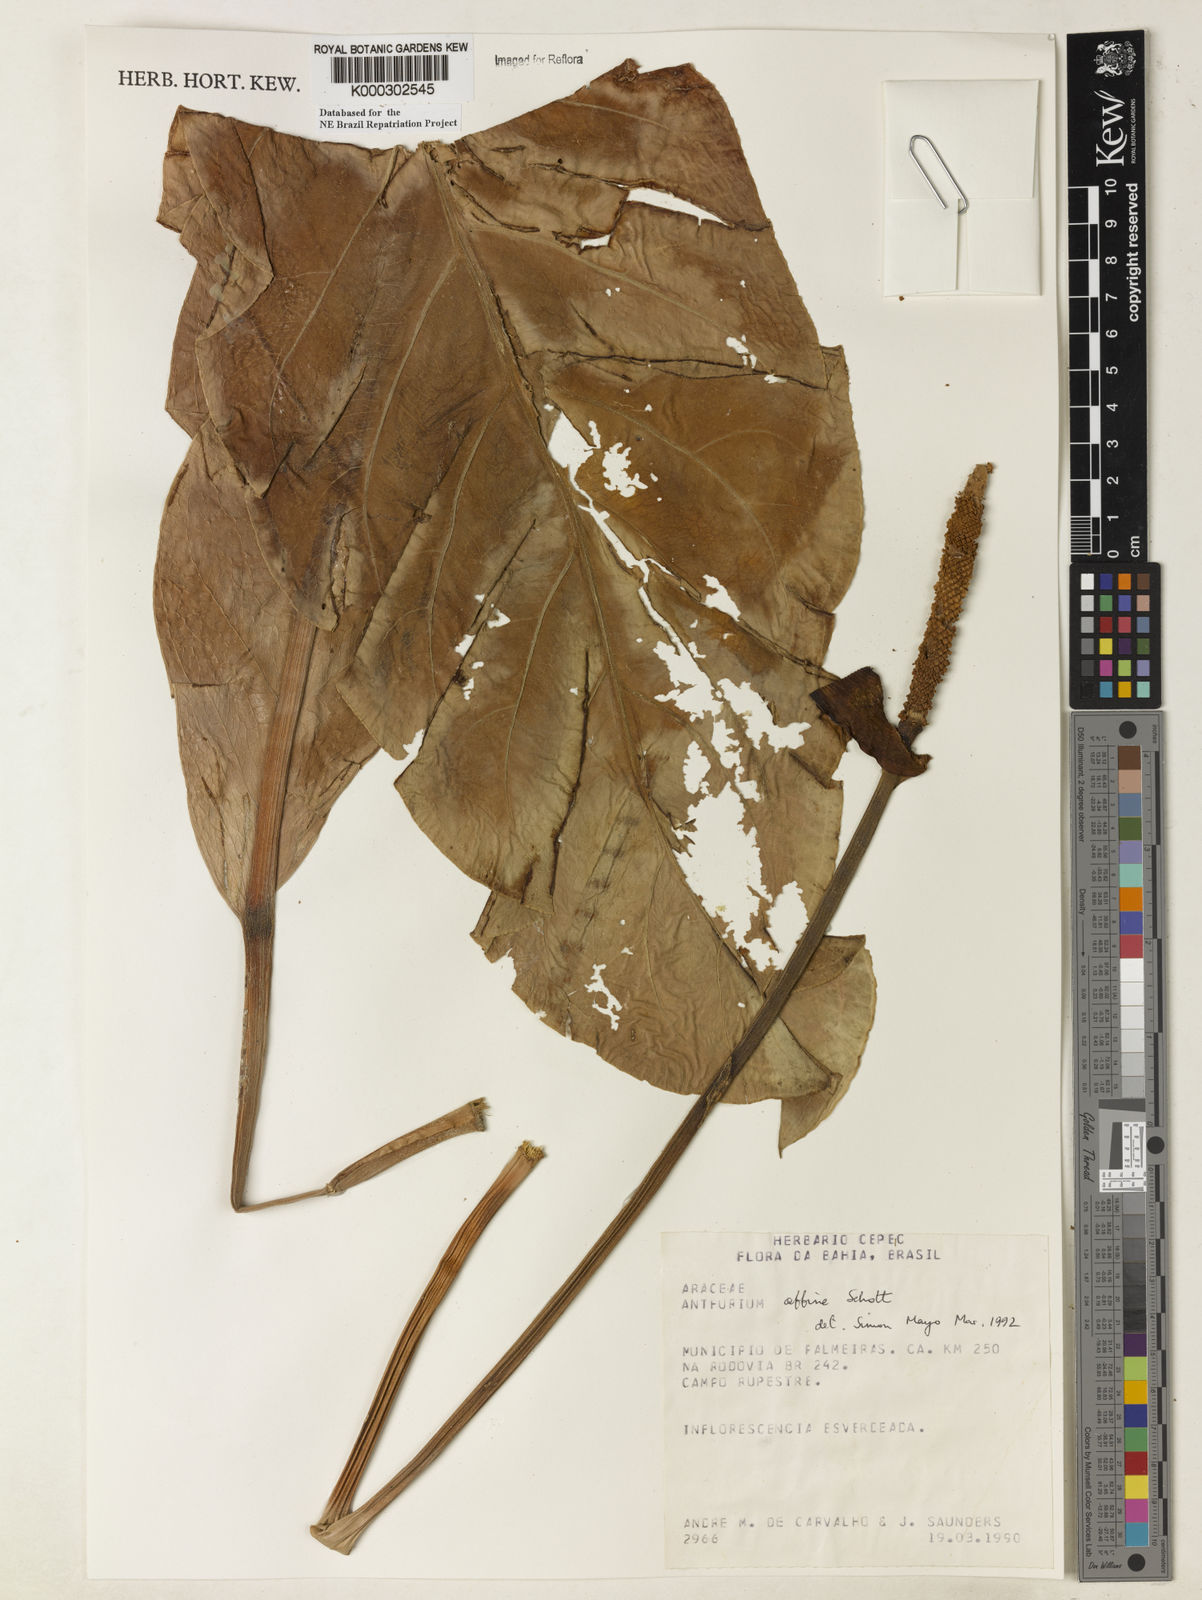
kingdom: Plantae
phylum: Tracheophyta
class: Liliopsida
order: Alismatales
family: Araceae
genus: Anthurium
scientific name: Anthurium affine
